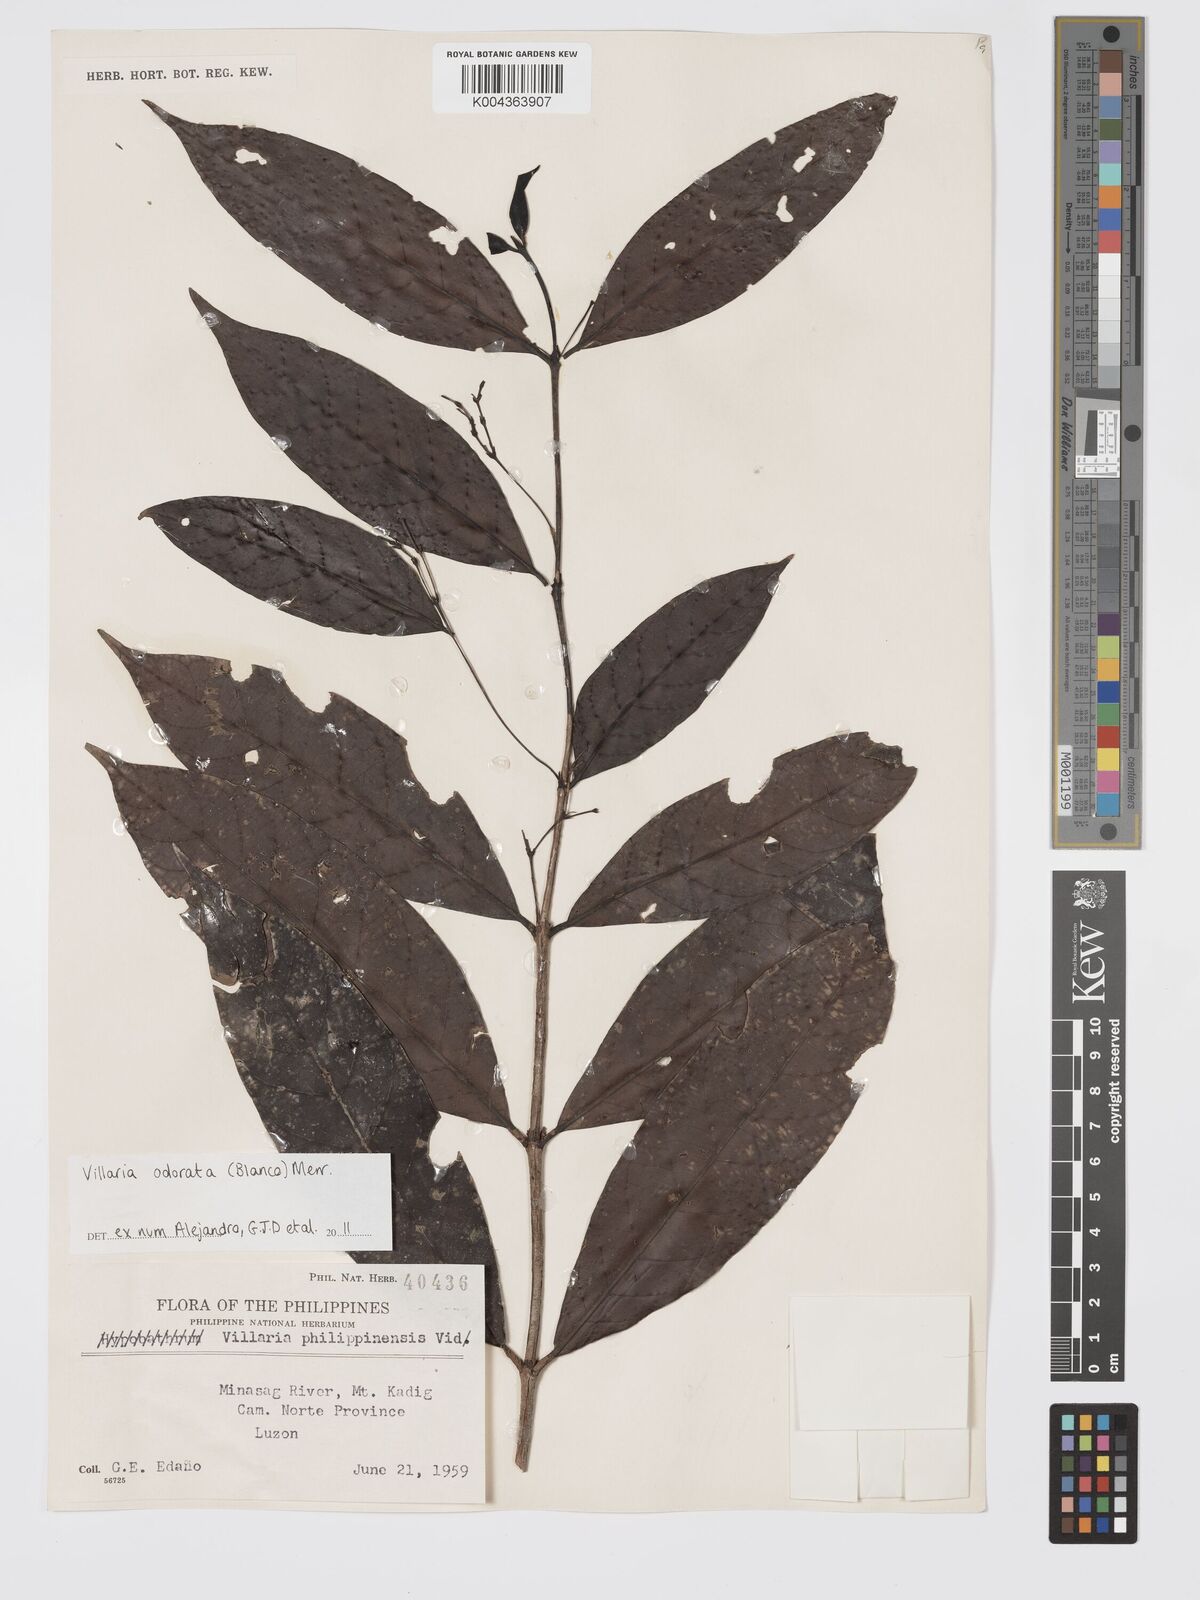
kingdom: Plantae
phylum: Tracheophyta
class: Magnoliopsida
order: Gentianales
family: Rubiaceae
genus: Villaria
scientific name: Villaria odorata
